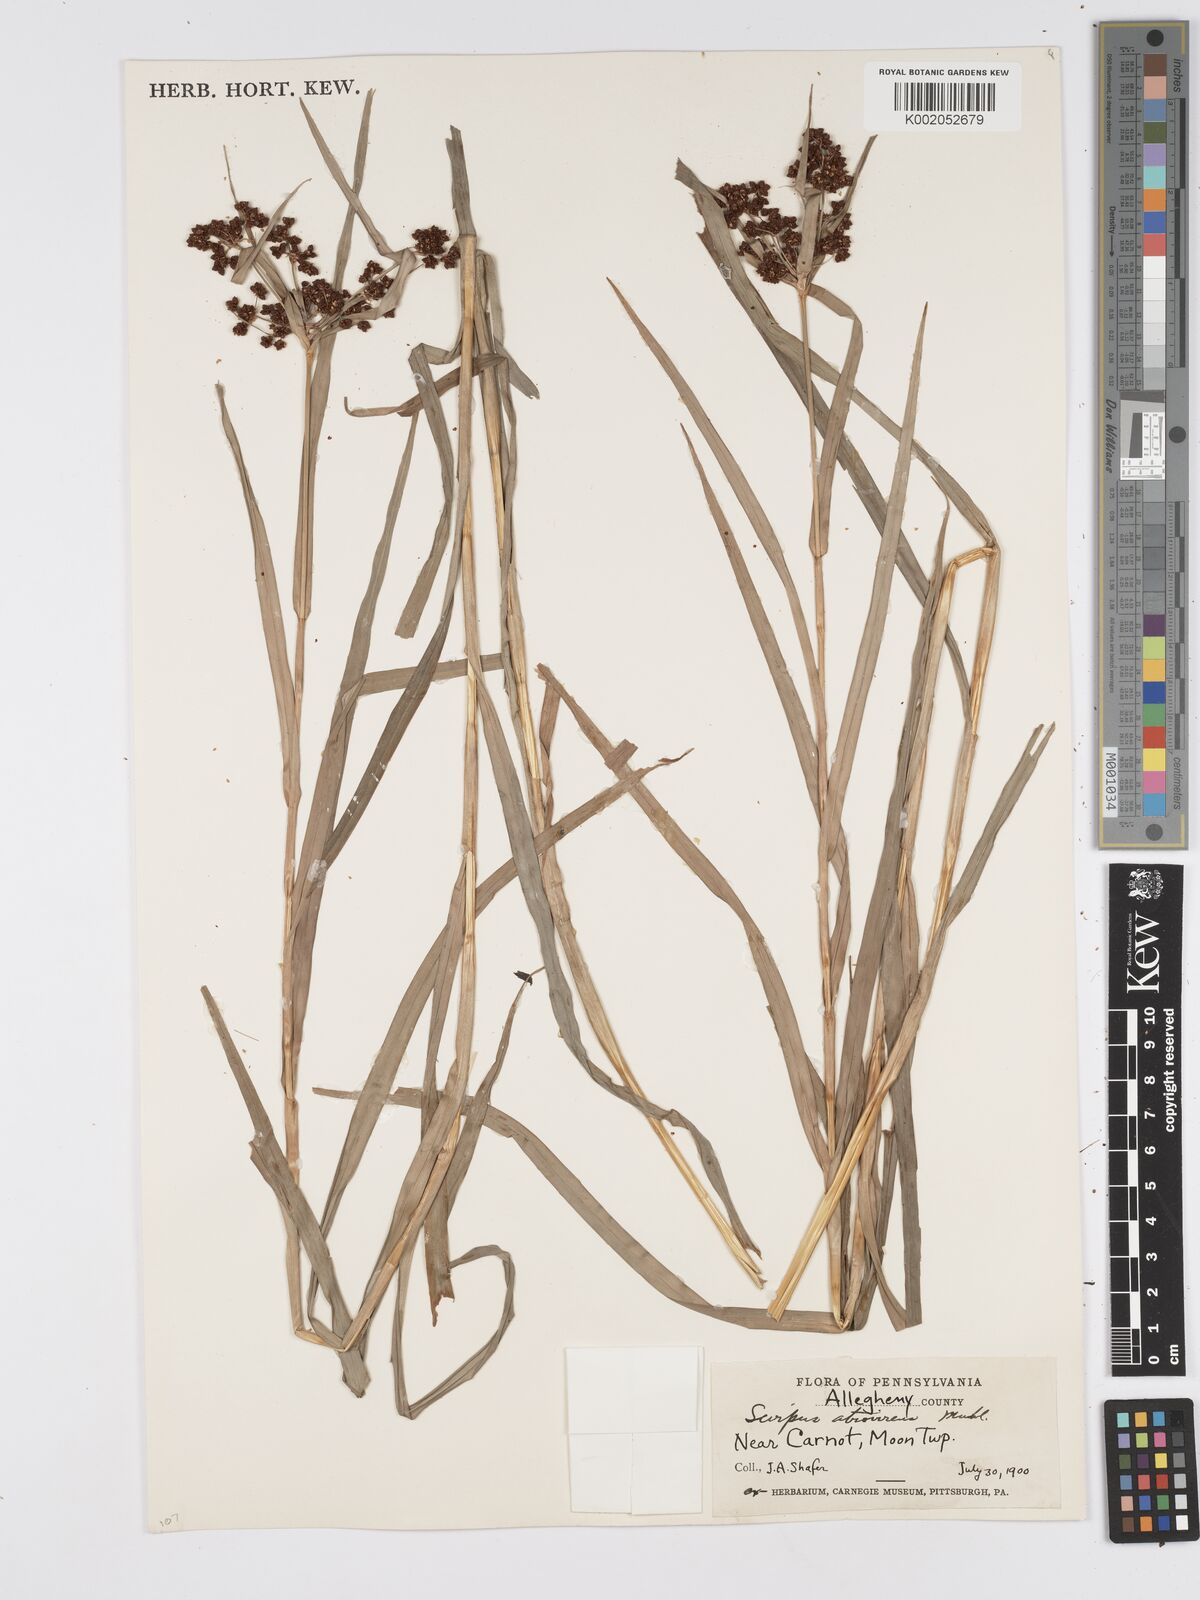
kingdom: Plantae
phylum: Tracheophyta
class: Liliopsida
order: Poales
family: Cyperaceae
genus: Scirpus
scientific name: Scirpus atrovirens
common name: Black bulrush
